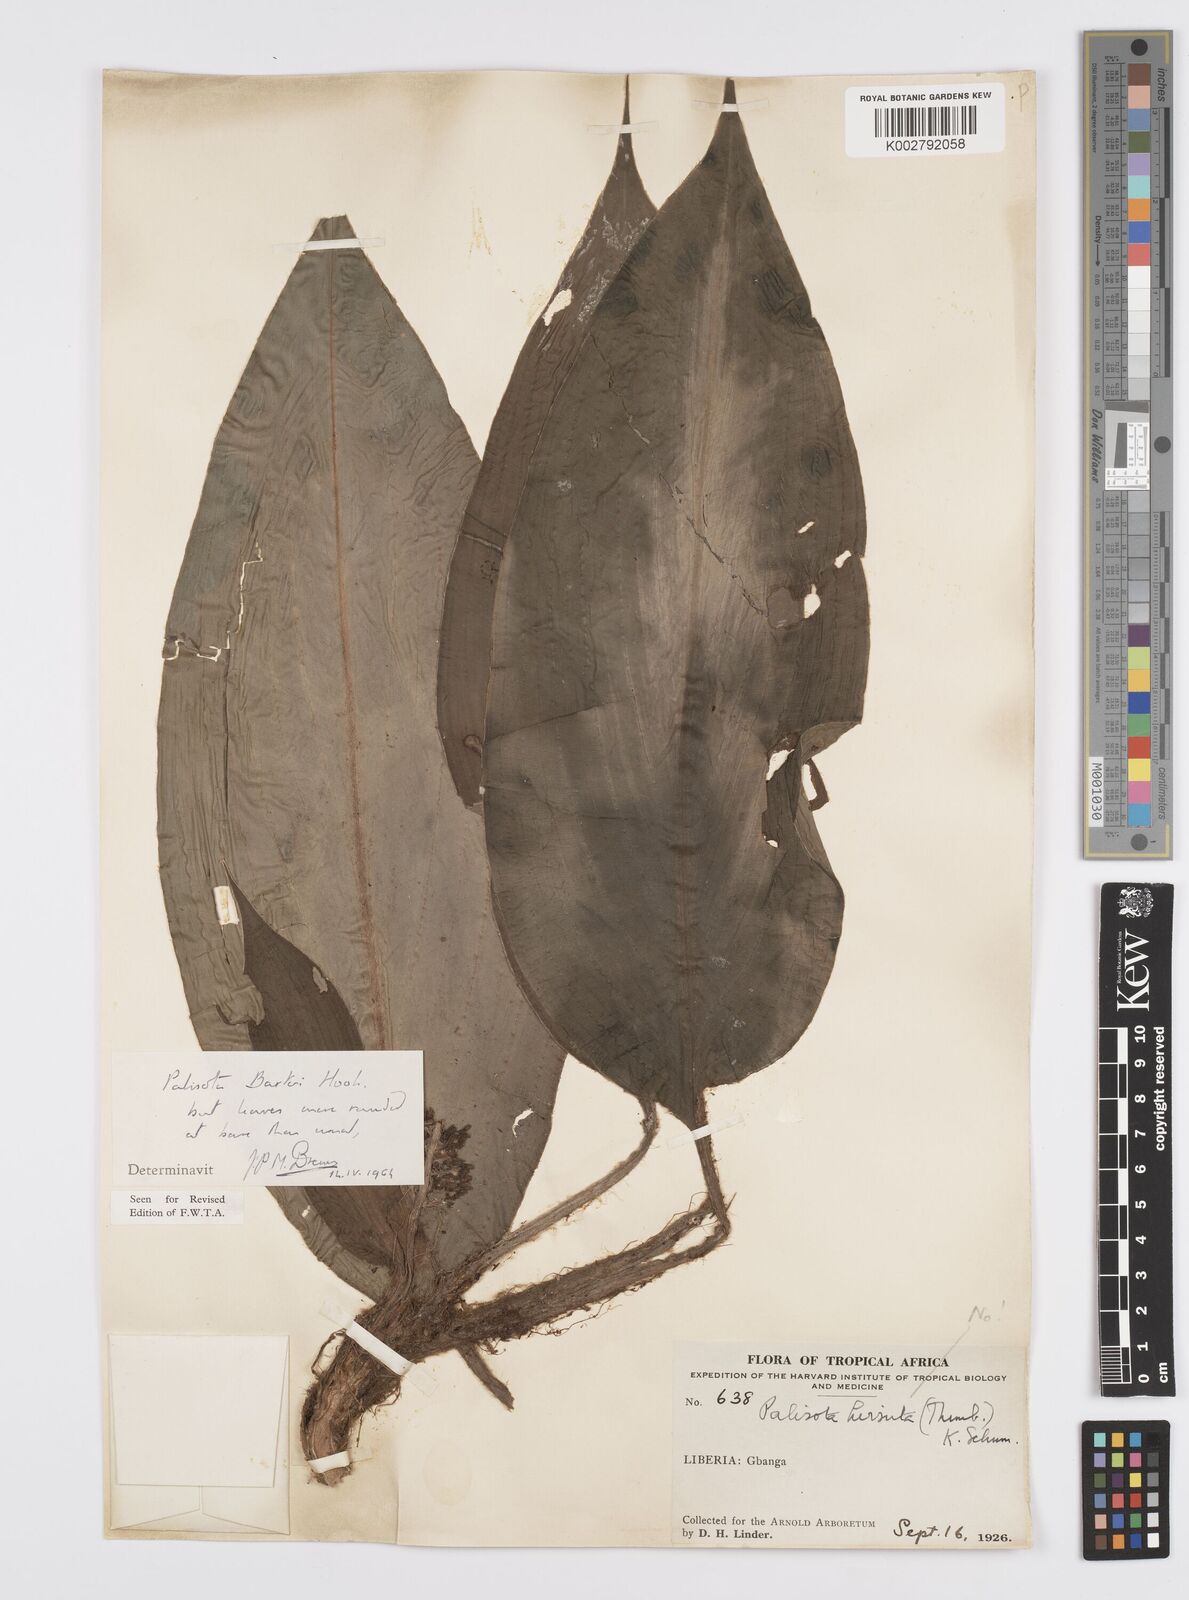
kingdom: Plantae
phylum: Tracheophyta
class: Liliopsida
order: Commelinales
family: Commelinaceae
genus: Palisota
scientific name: Palisota barteri
